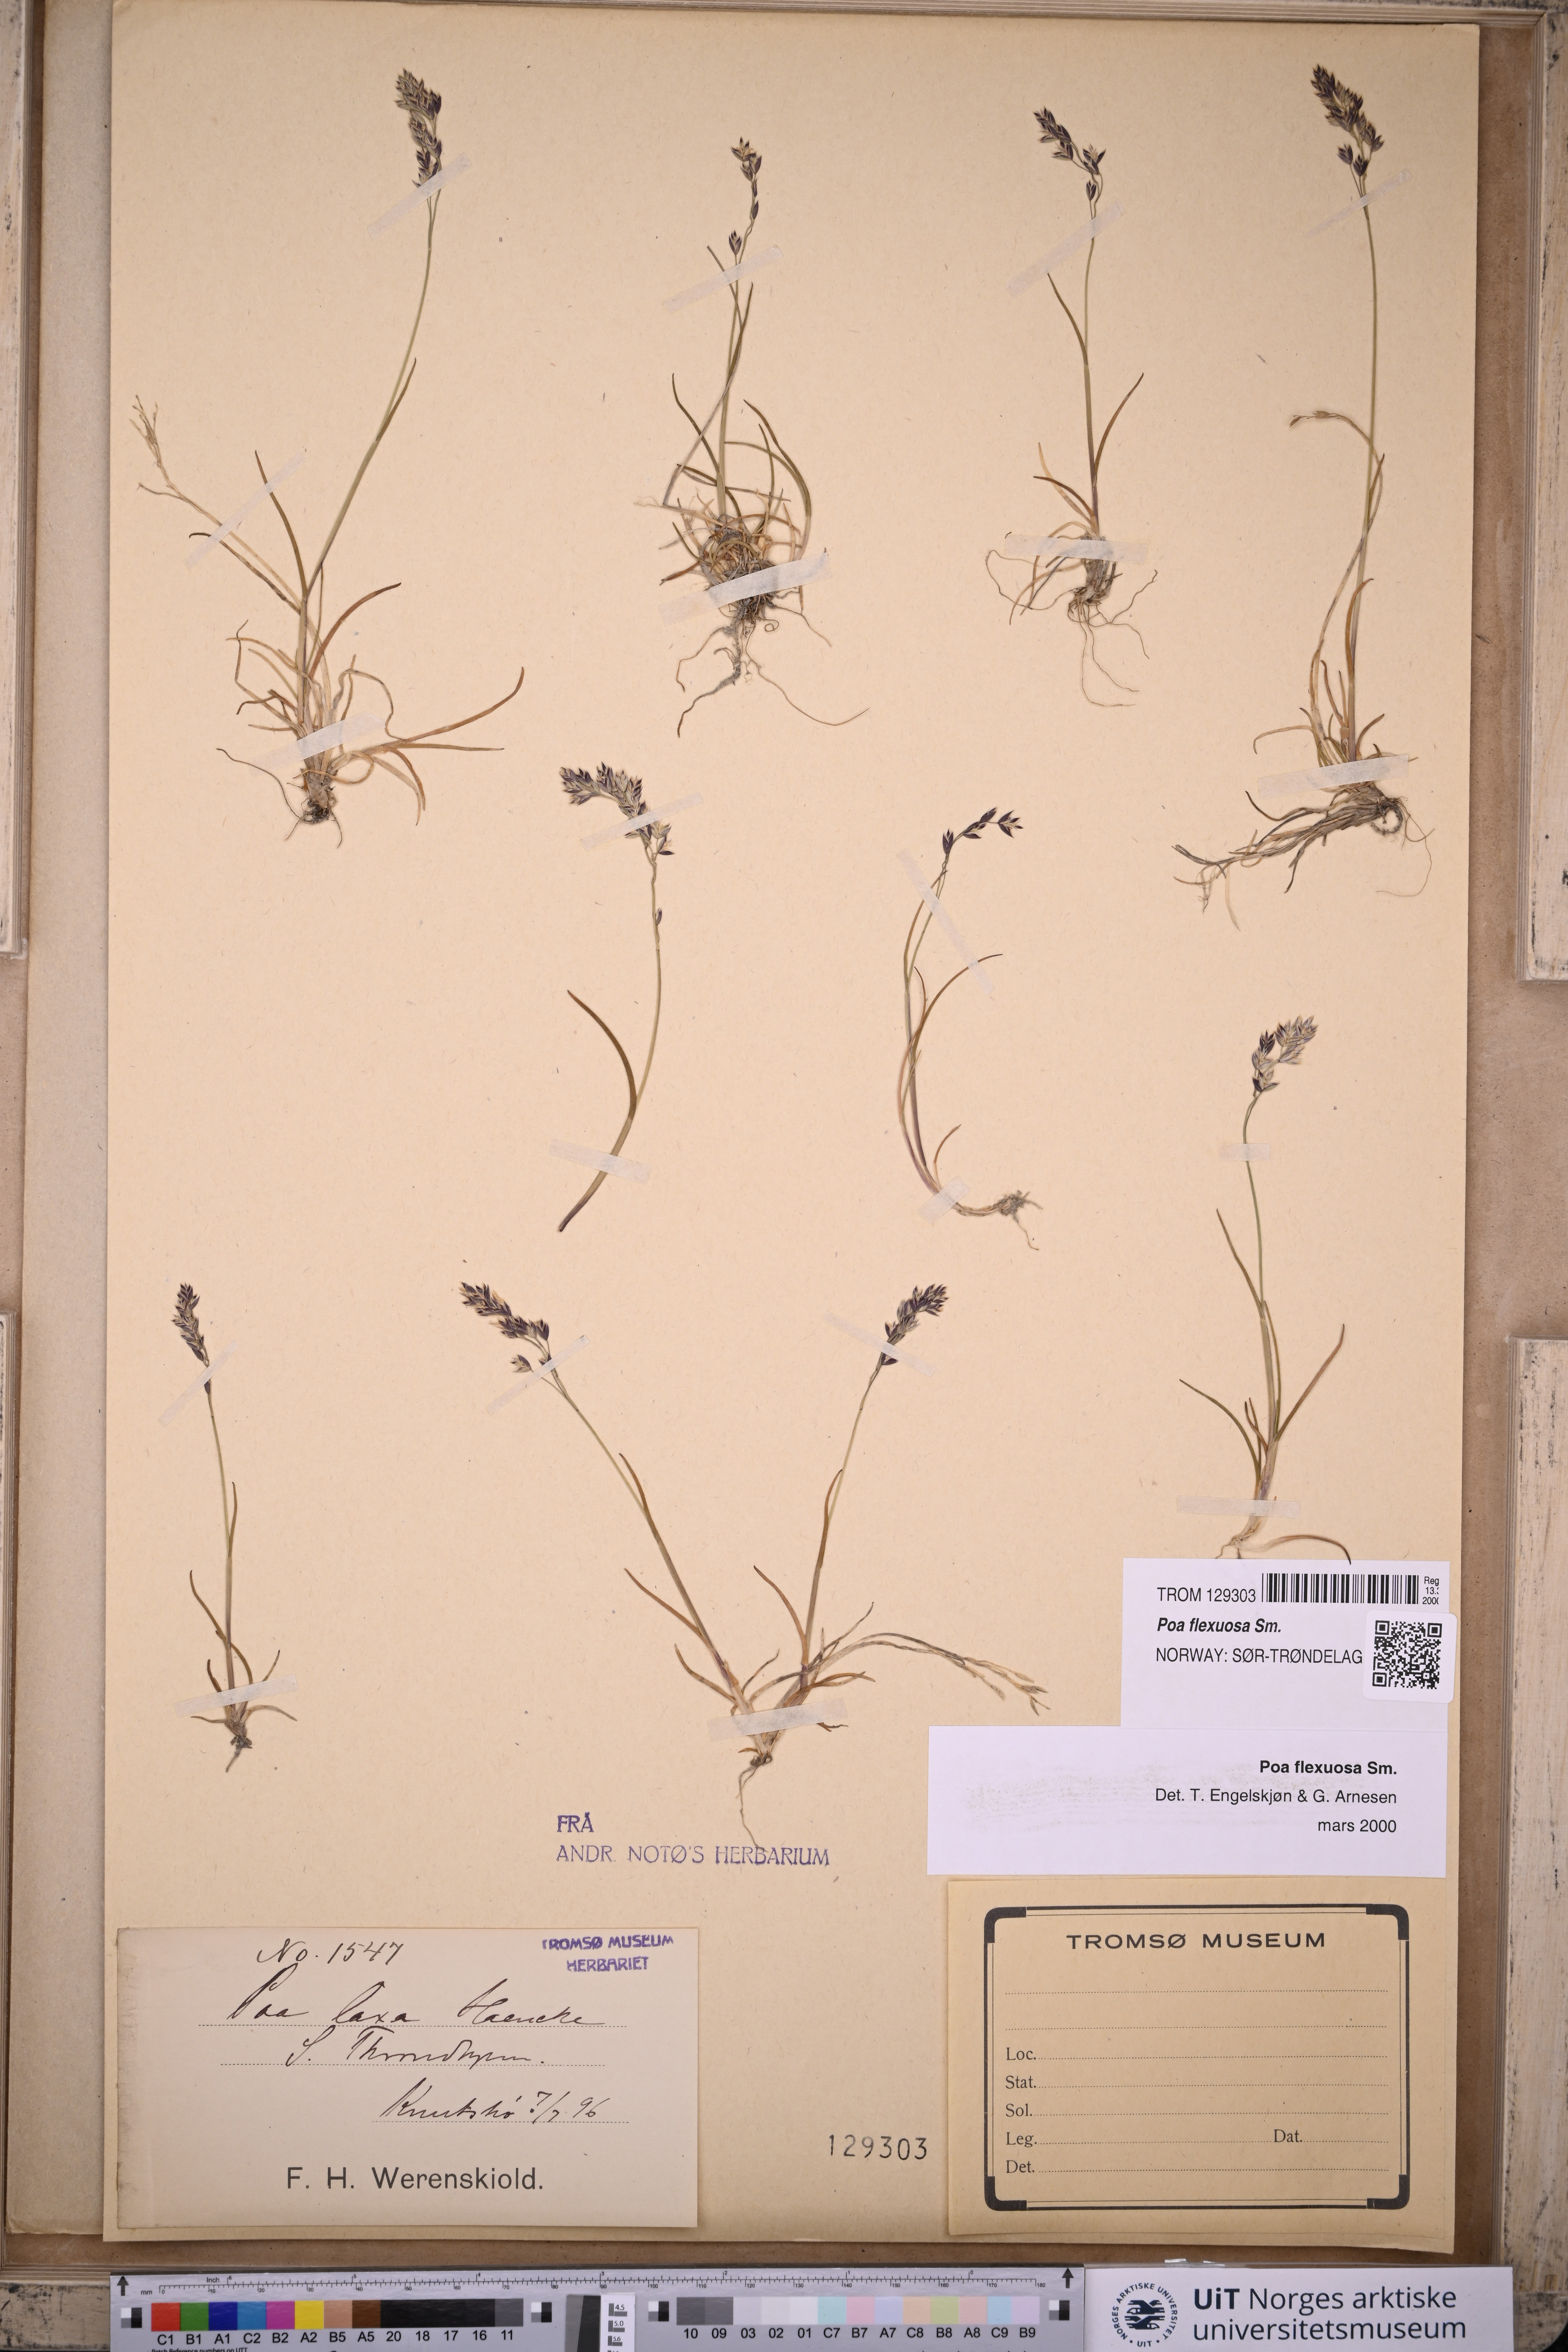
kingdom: Plantae
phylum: Tracheophyta
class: Liliopsida
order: Poales
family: Poaceae
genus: Poa
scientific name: Poa flexuosa
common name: Wavy meadow-grass
